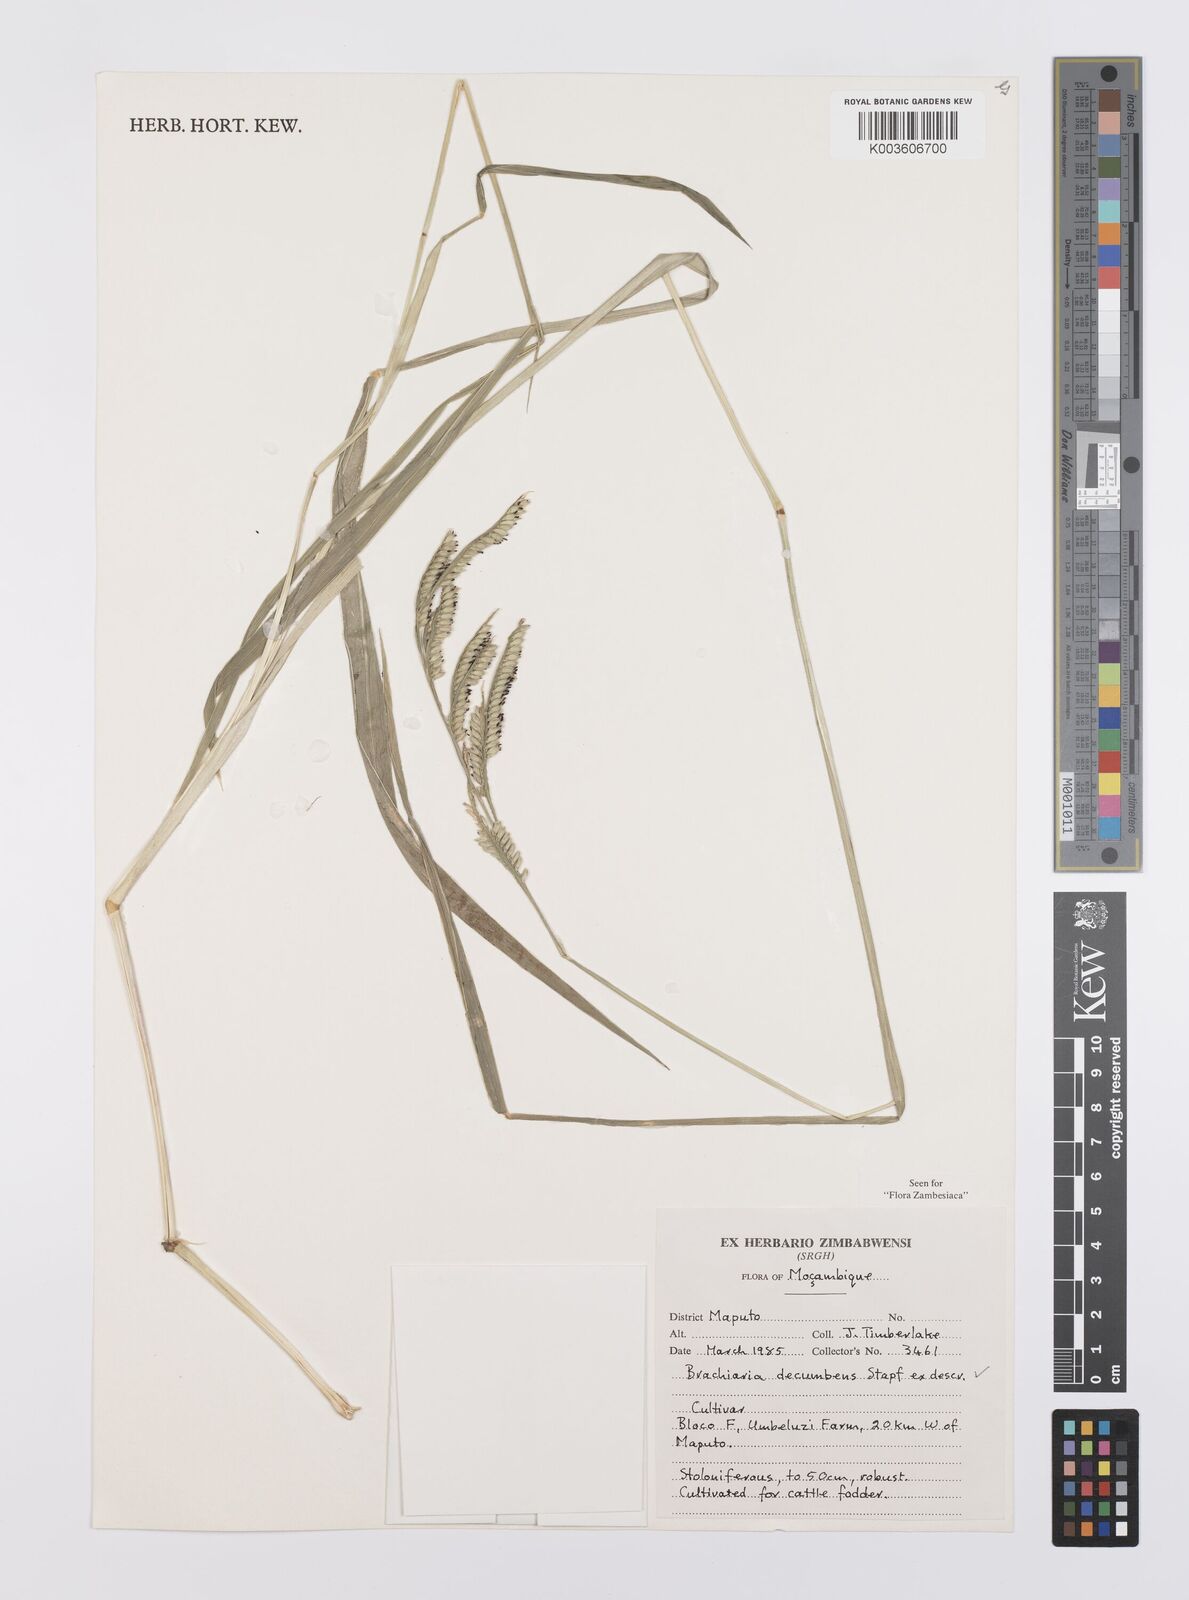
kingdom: Plantae
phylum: Tracheophyta
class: Liliopsida
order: Poales
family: Poaceae
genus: Urochloa
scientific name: Urochloa eminii
